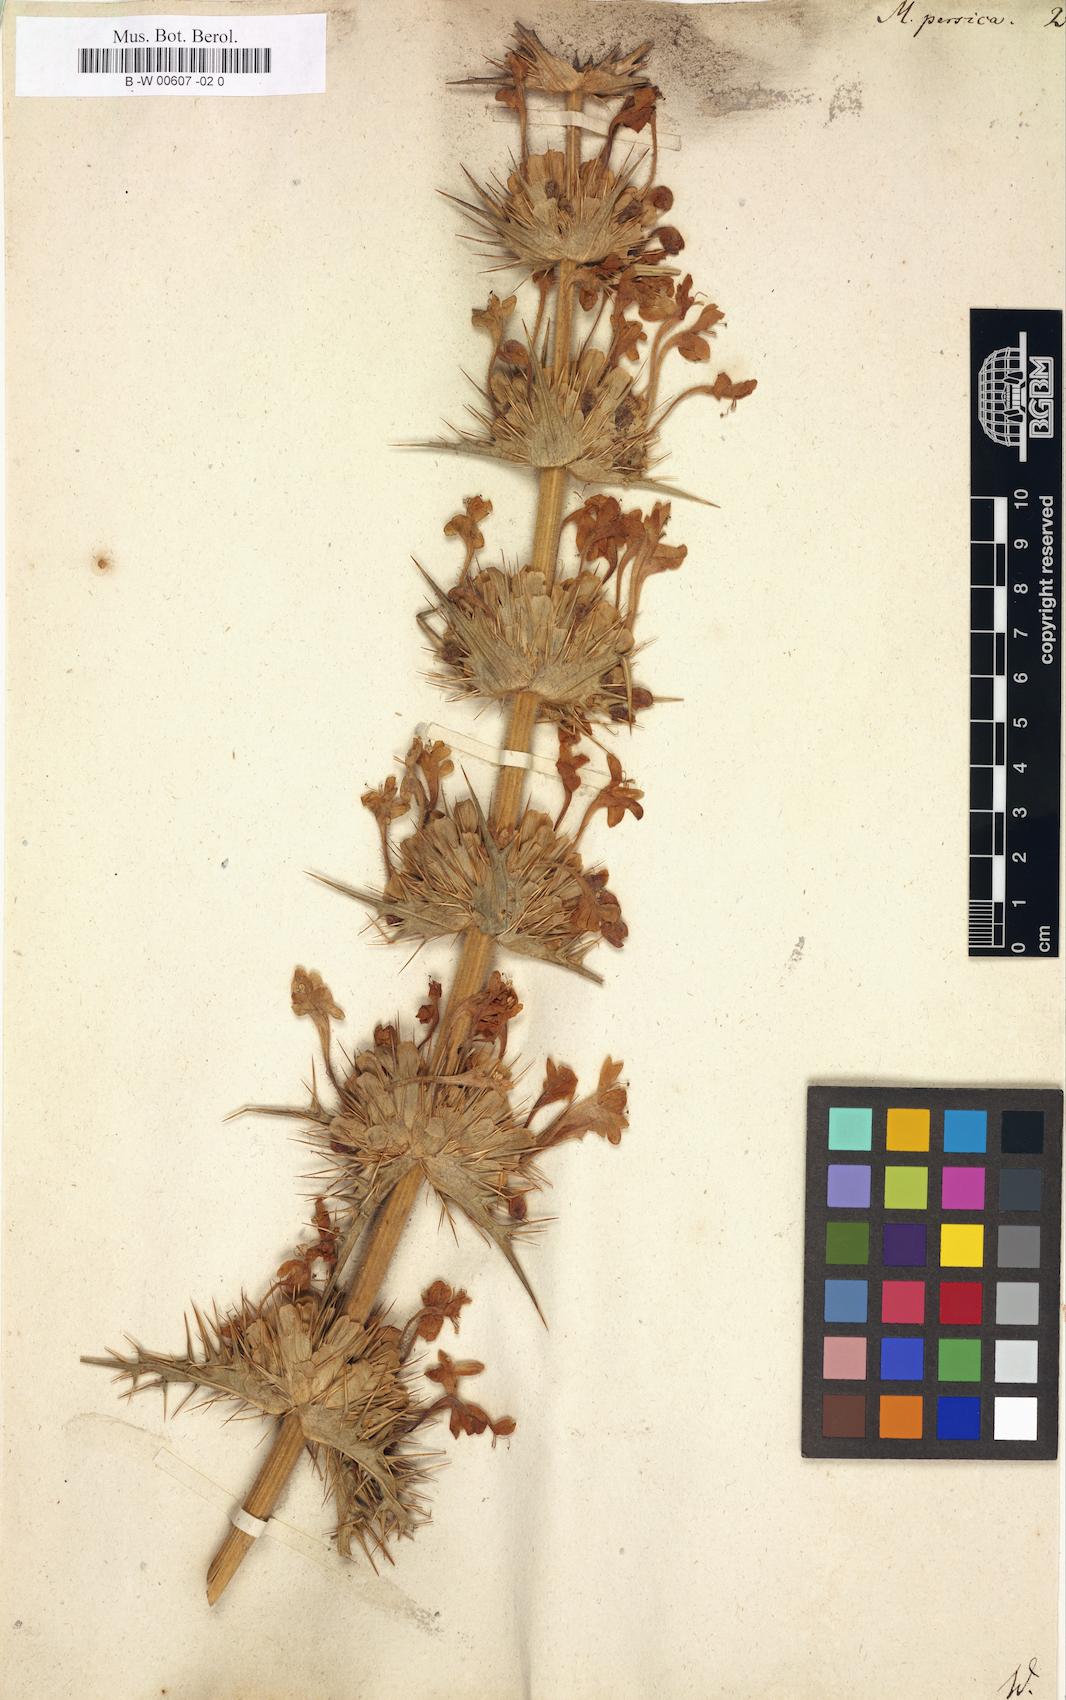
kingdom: Plantae
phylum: Tracheophyta
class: Magnoliopsida
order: Dipsacales
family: Caprifoliaceae
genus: Morina
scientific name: Morina persica
